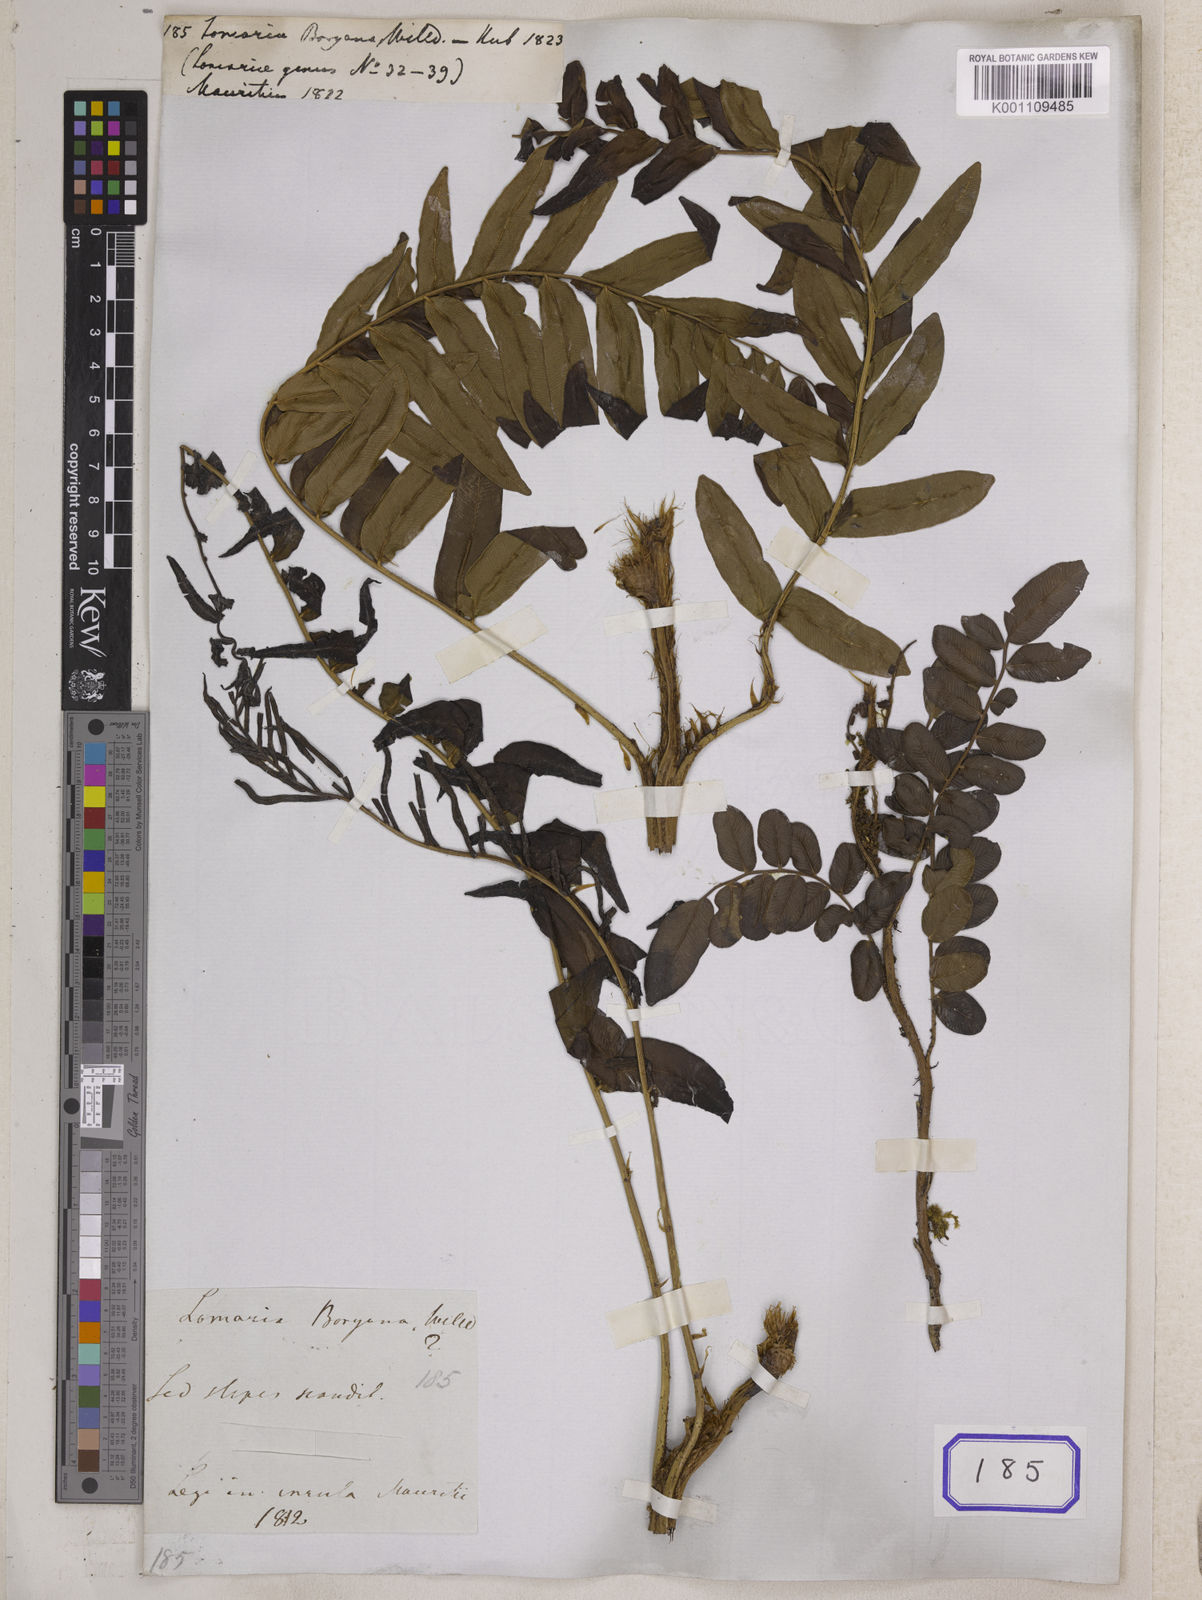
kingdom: Plantae
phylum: Tracheophyta
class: Polypodiopsida
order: Polypodiales
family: Blechnaceae
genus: Lomariocycas
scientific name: Lomariocycas tabularis
